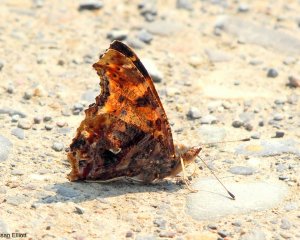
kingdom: Animalia
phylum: Arthropoda
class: Insecta
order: Lepidoptera
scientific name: Lepidoptera
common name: Butterflies
